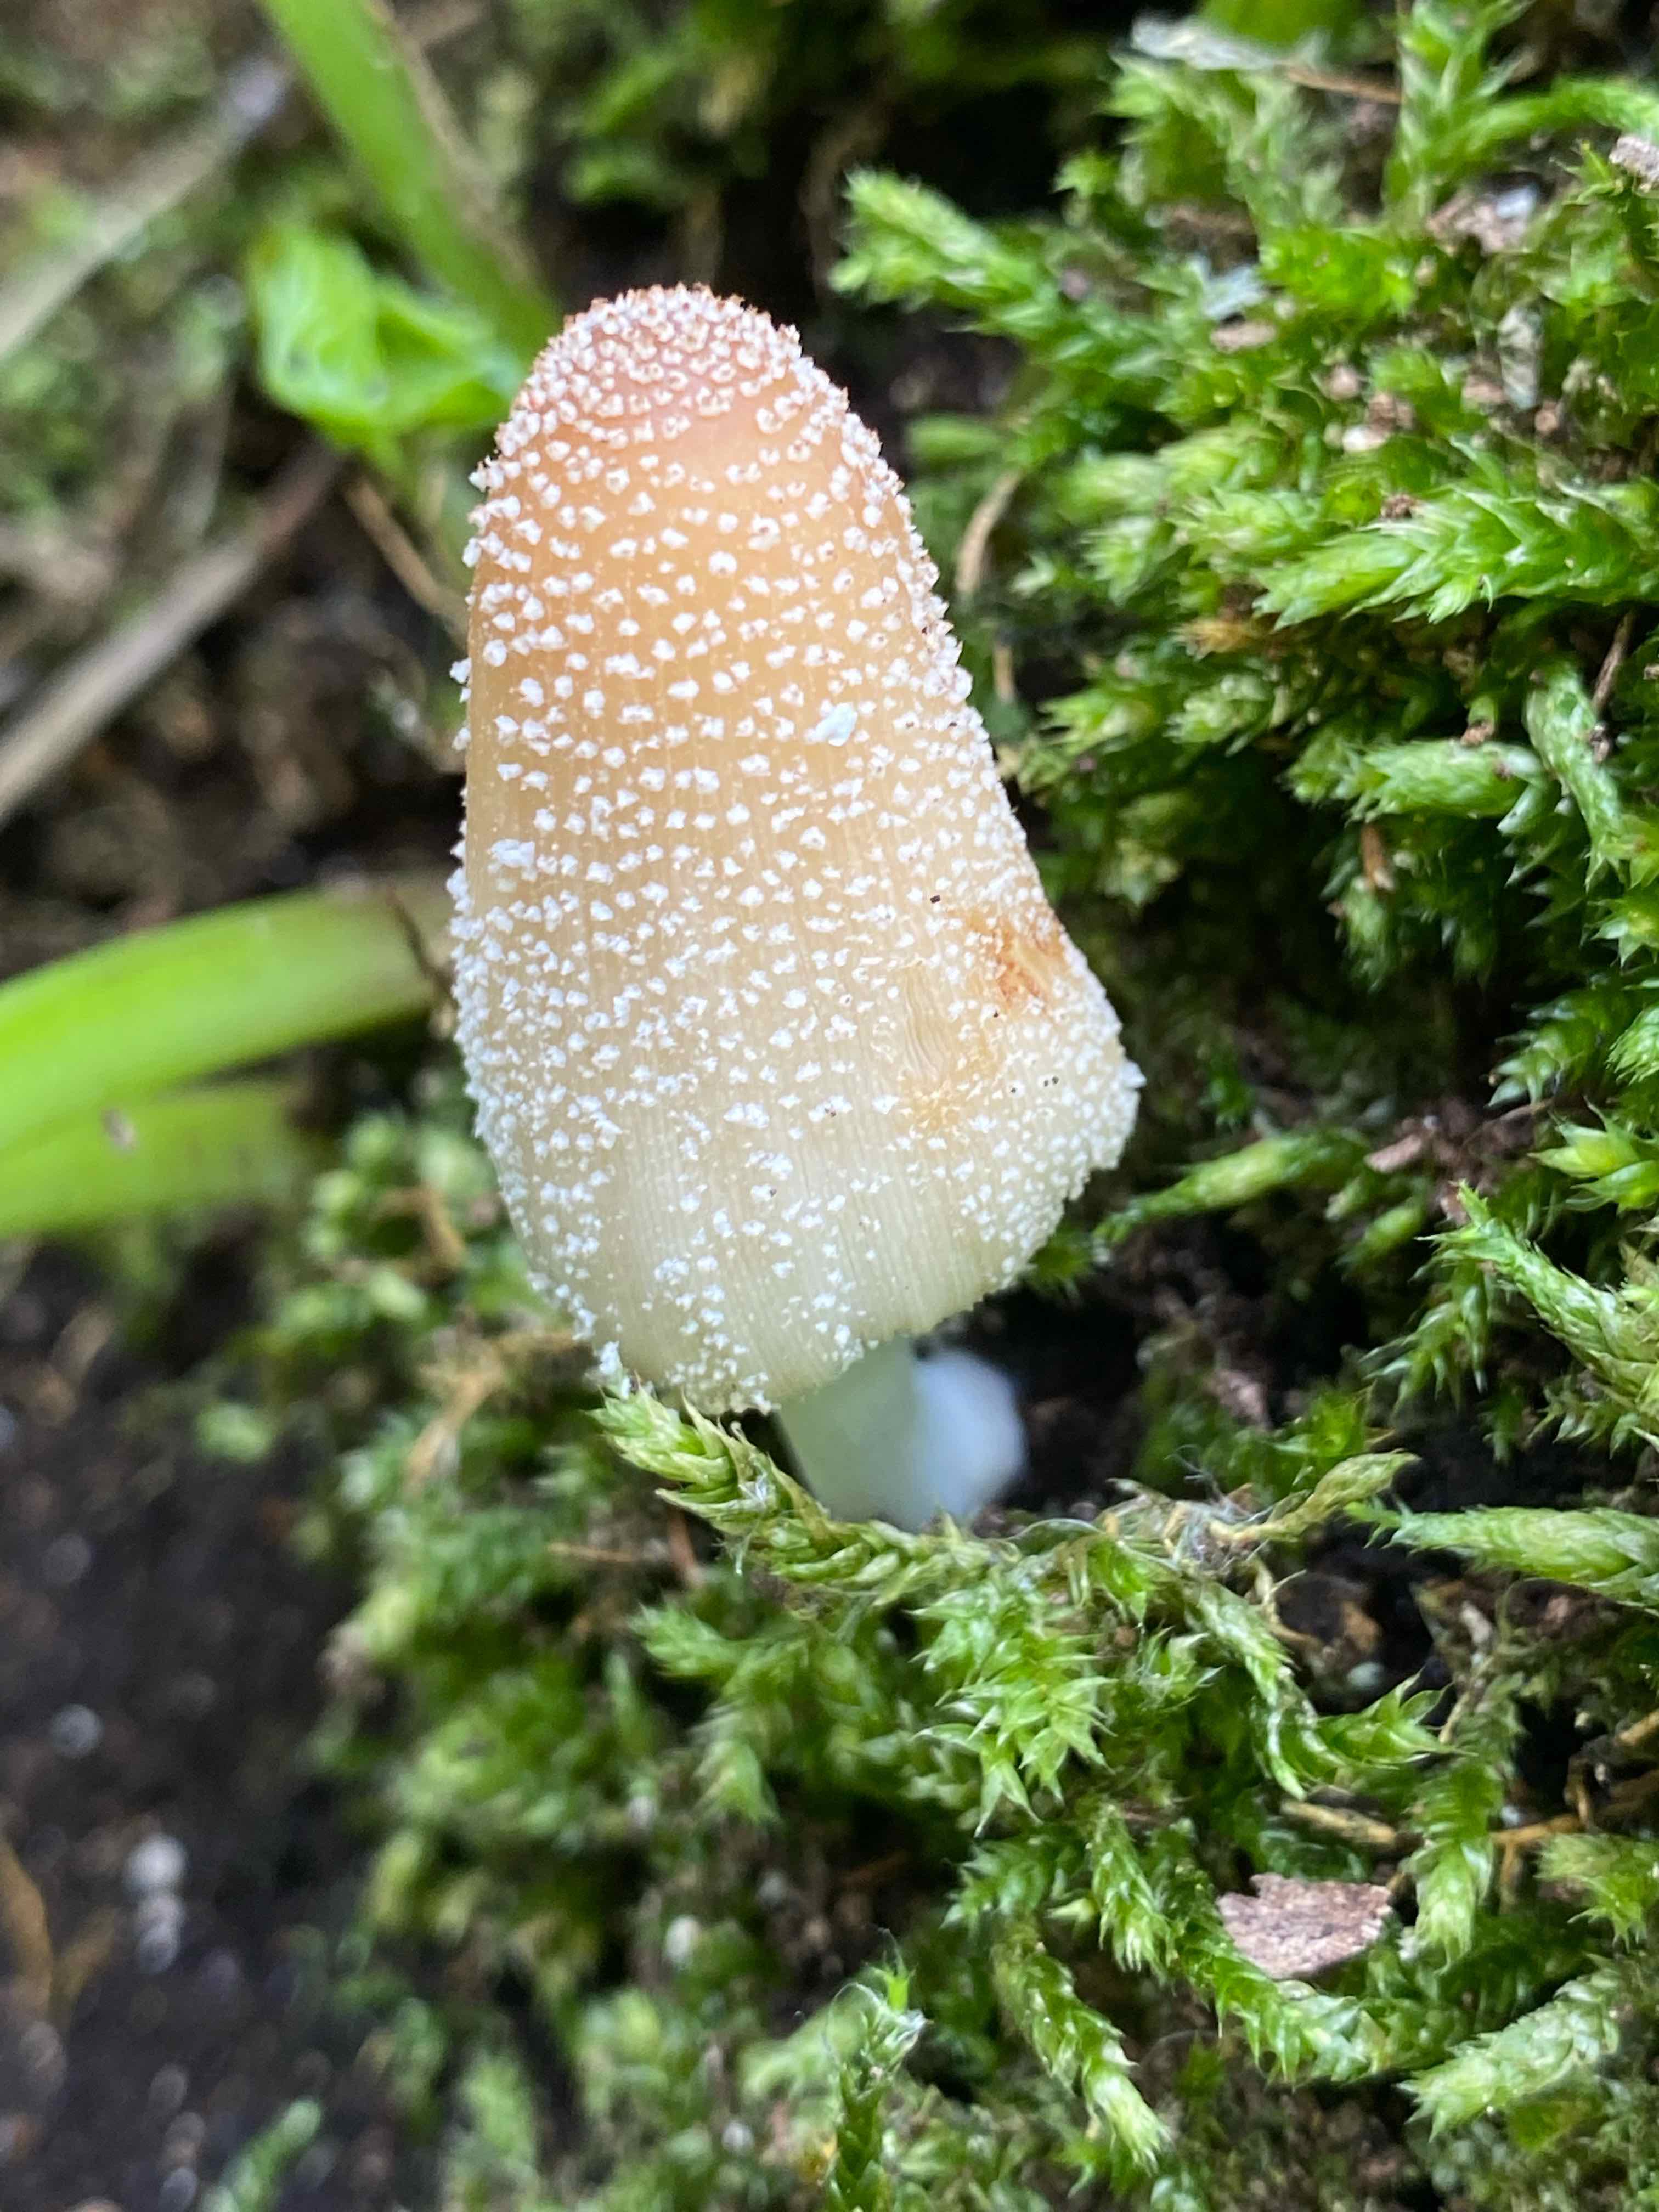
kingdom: Fungi
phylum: Basidiomycota
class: Agaricomycetes
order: Agaricales
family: Psathyrellaceae
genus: Coprinellus
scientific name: Coprinellus
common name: blækhat
